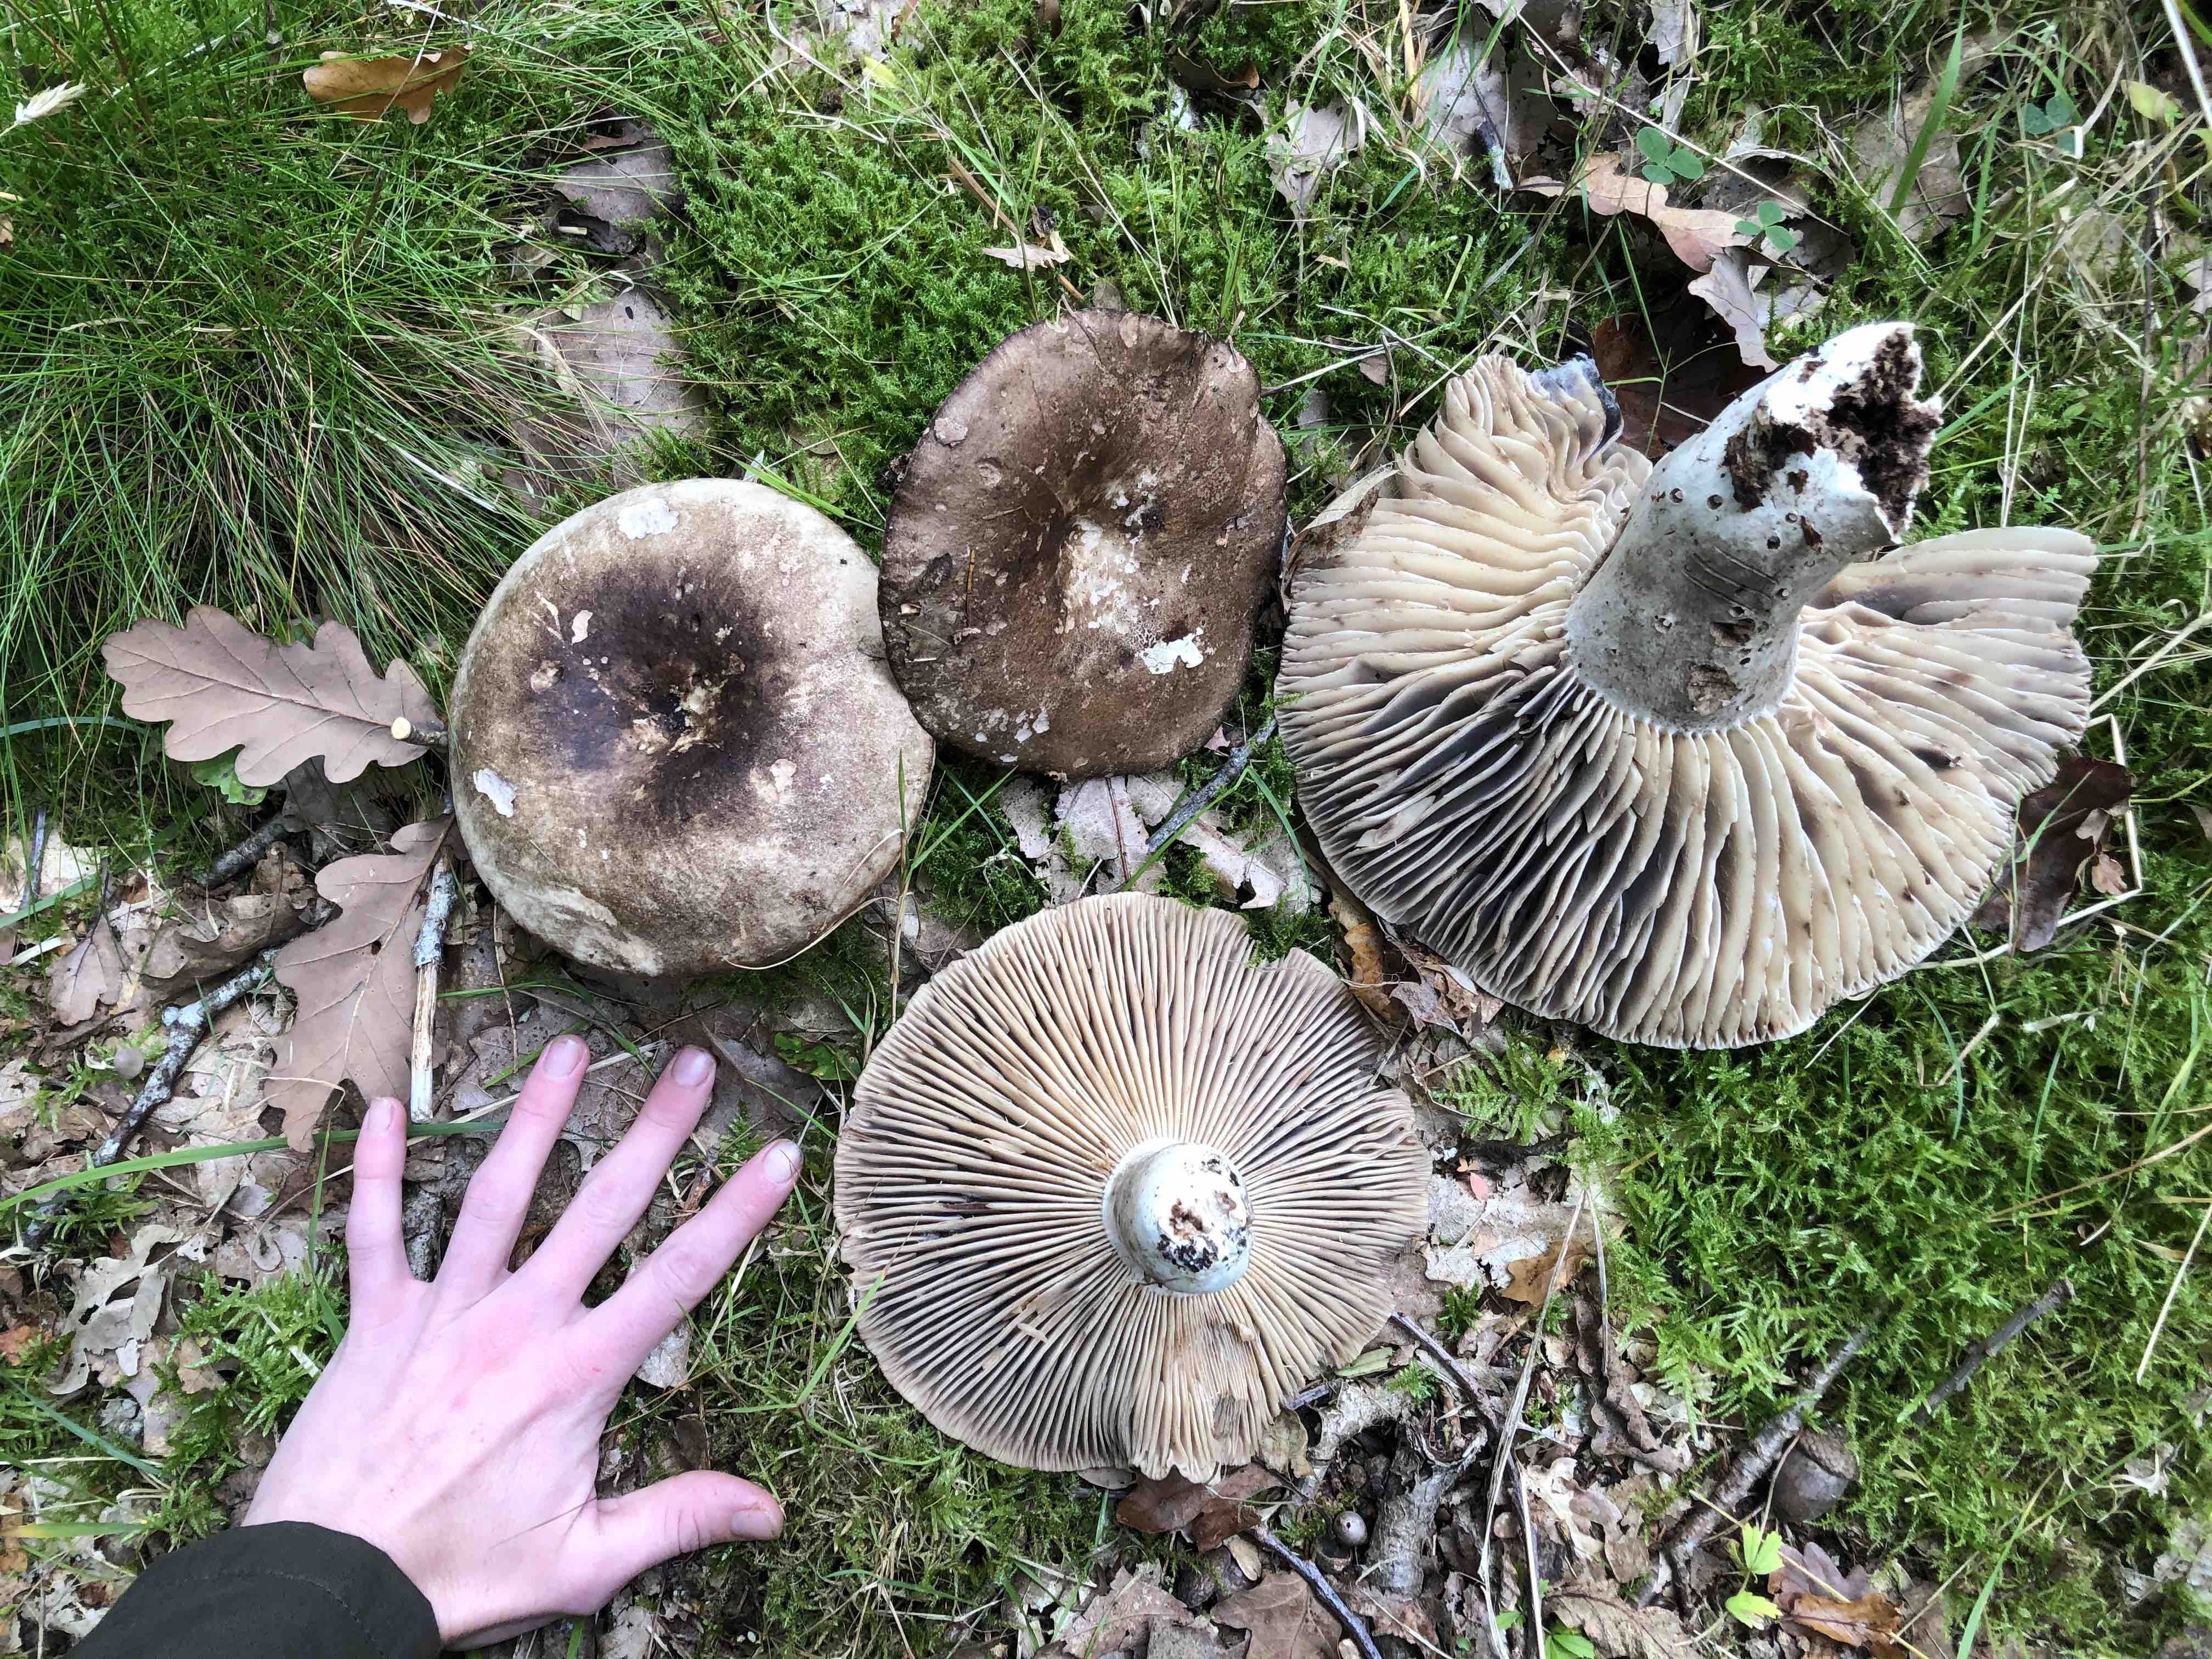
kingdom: Fungi
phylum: Basidiomycota
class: Agaricomycetes
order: Russulales
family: Russulaceae
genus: Russula
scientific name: Russula adusta
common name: sværtende skørhat
